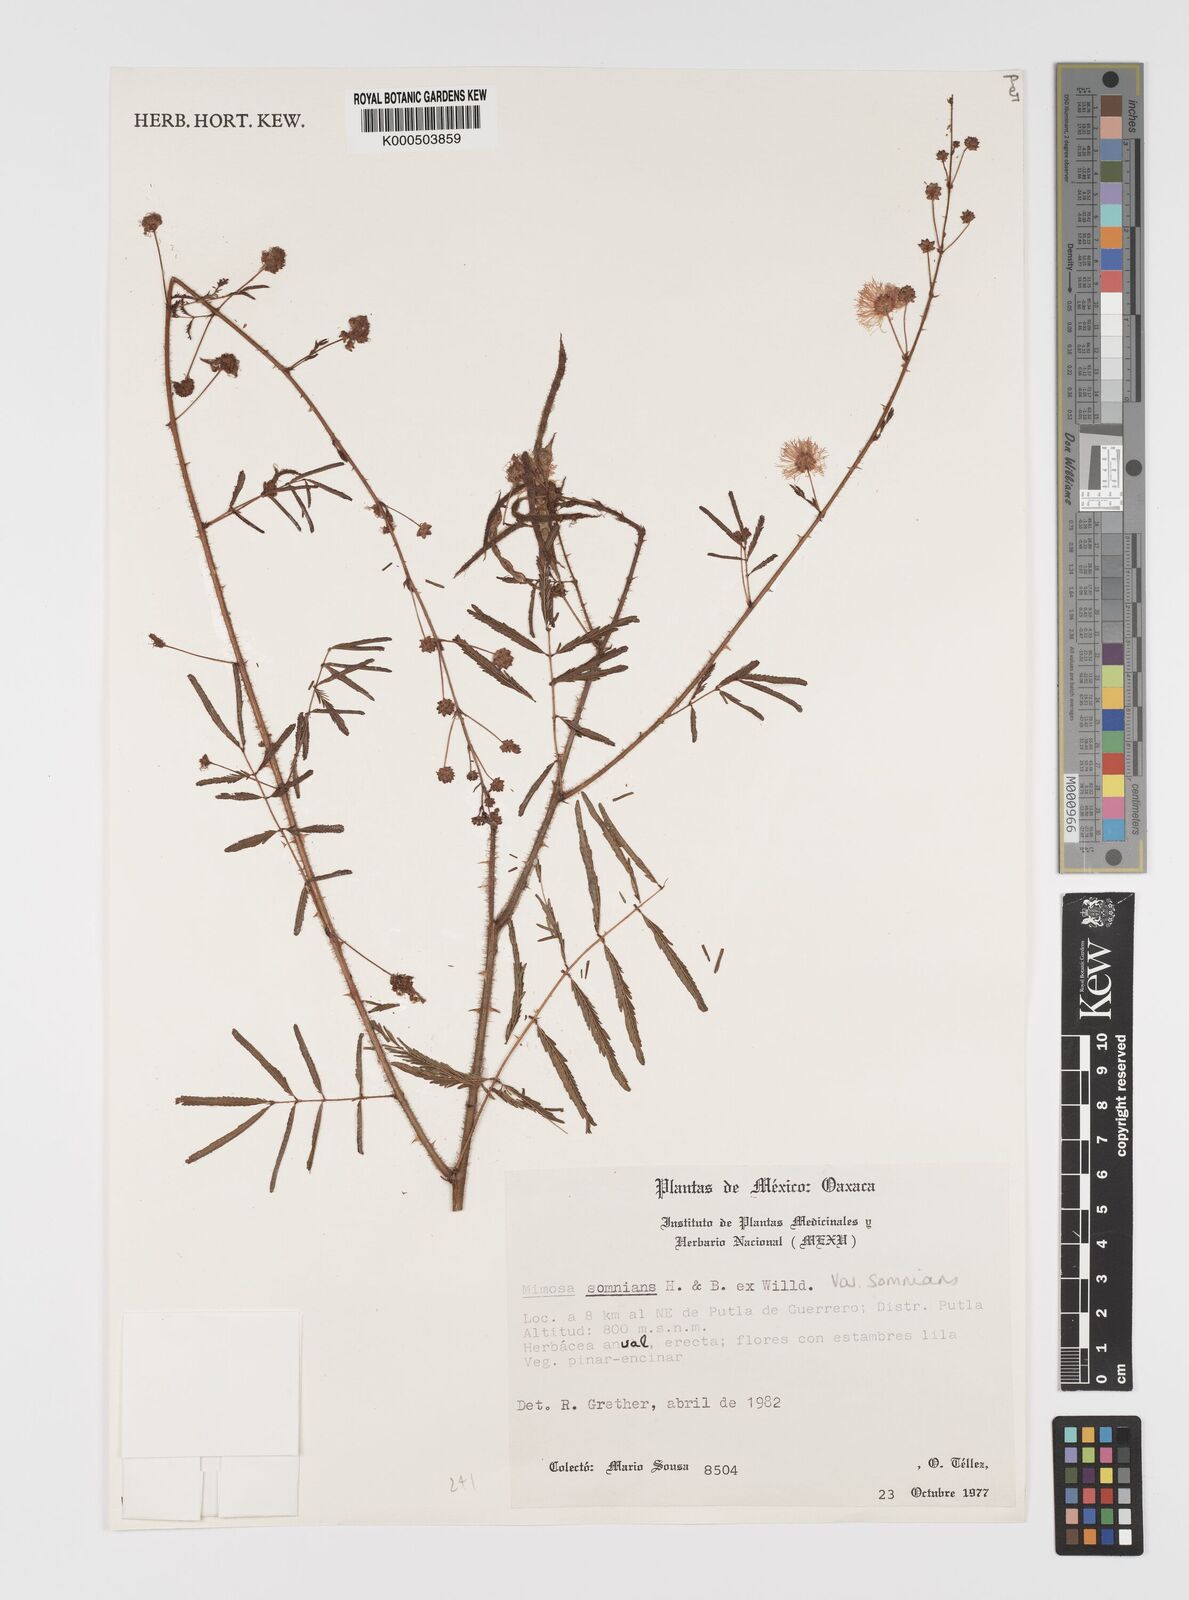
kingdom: Plantae
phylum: Tracheophyta
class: Magnoliopsida
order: Fabales
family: Fabaceae
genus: Mimosa
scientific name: Mimosa somnians
